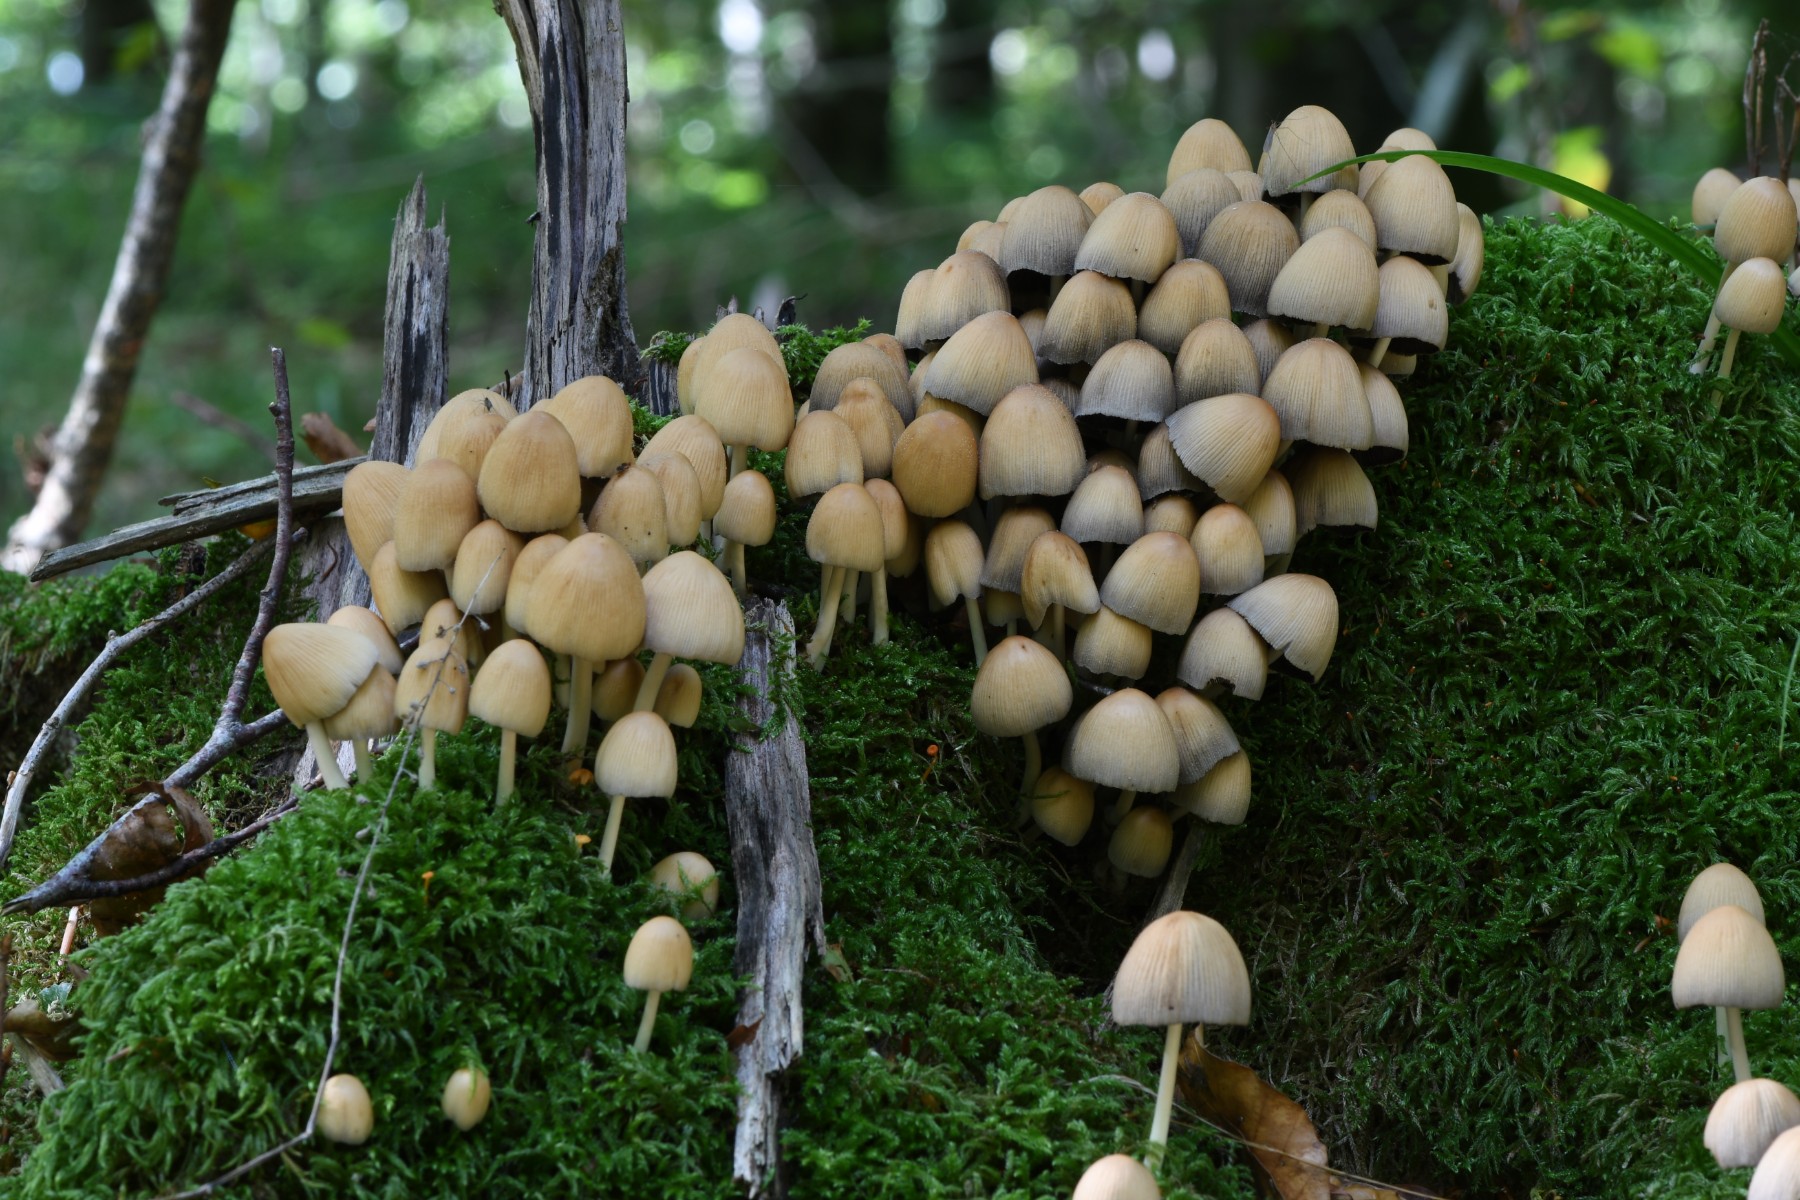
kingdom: Fungi
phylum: Basidiomycota
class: Agaricomycetes
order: Agaricales
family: Psathyrellaceae
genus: Coprinellus
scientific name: Coprinellus micaceus
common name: glimmer-blækhat
